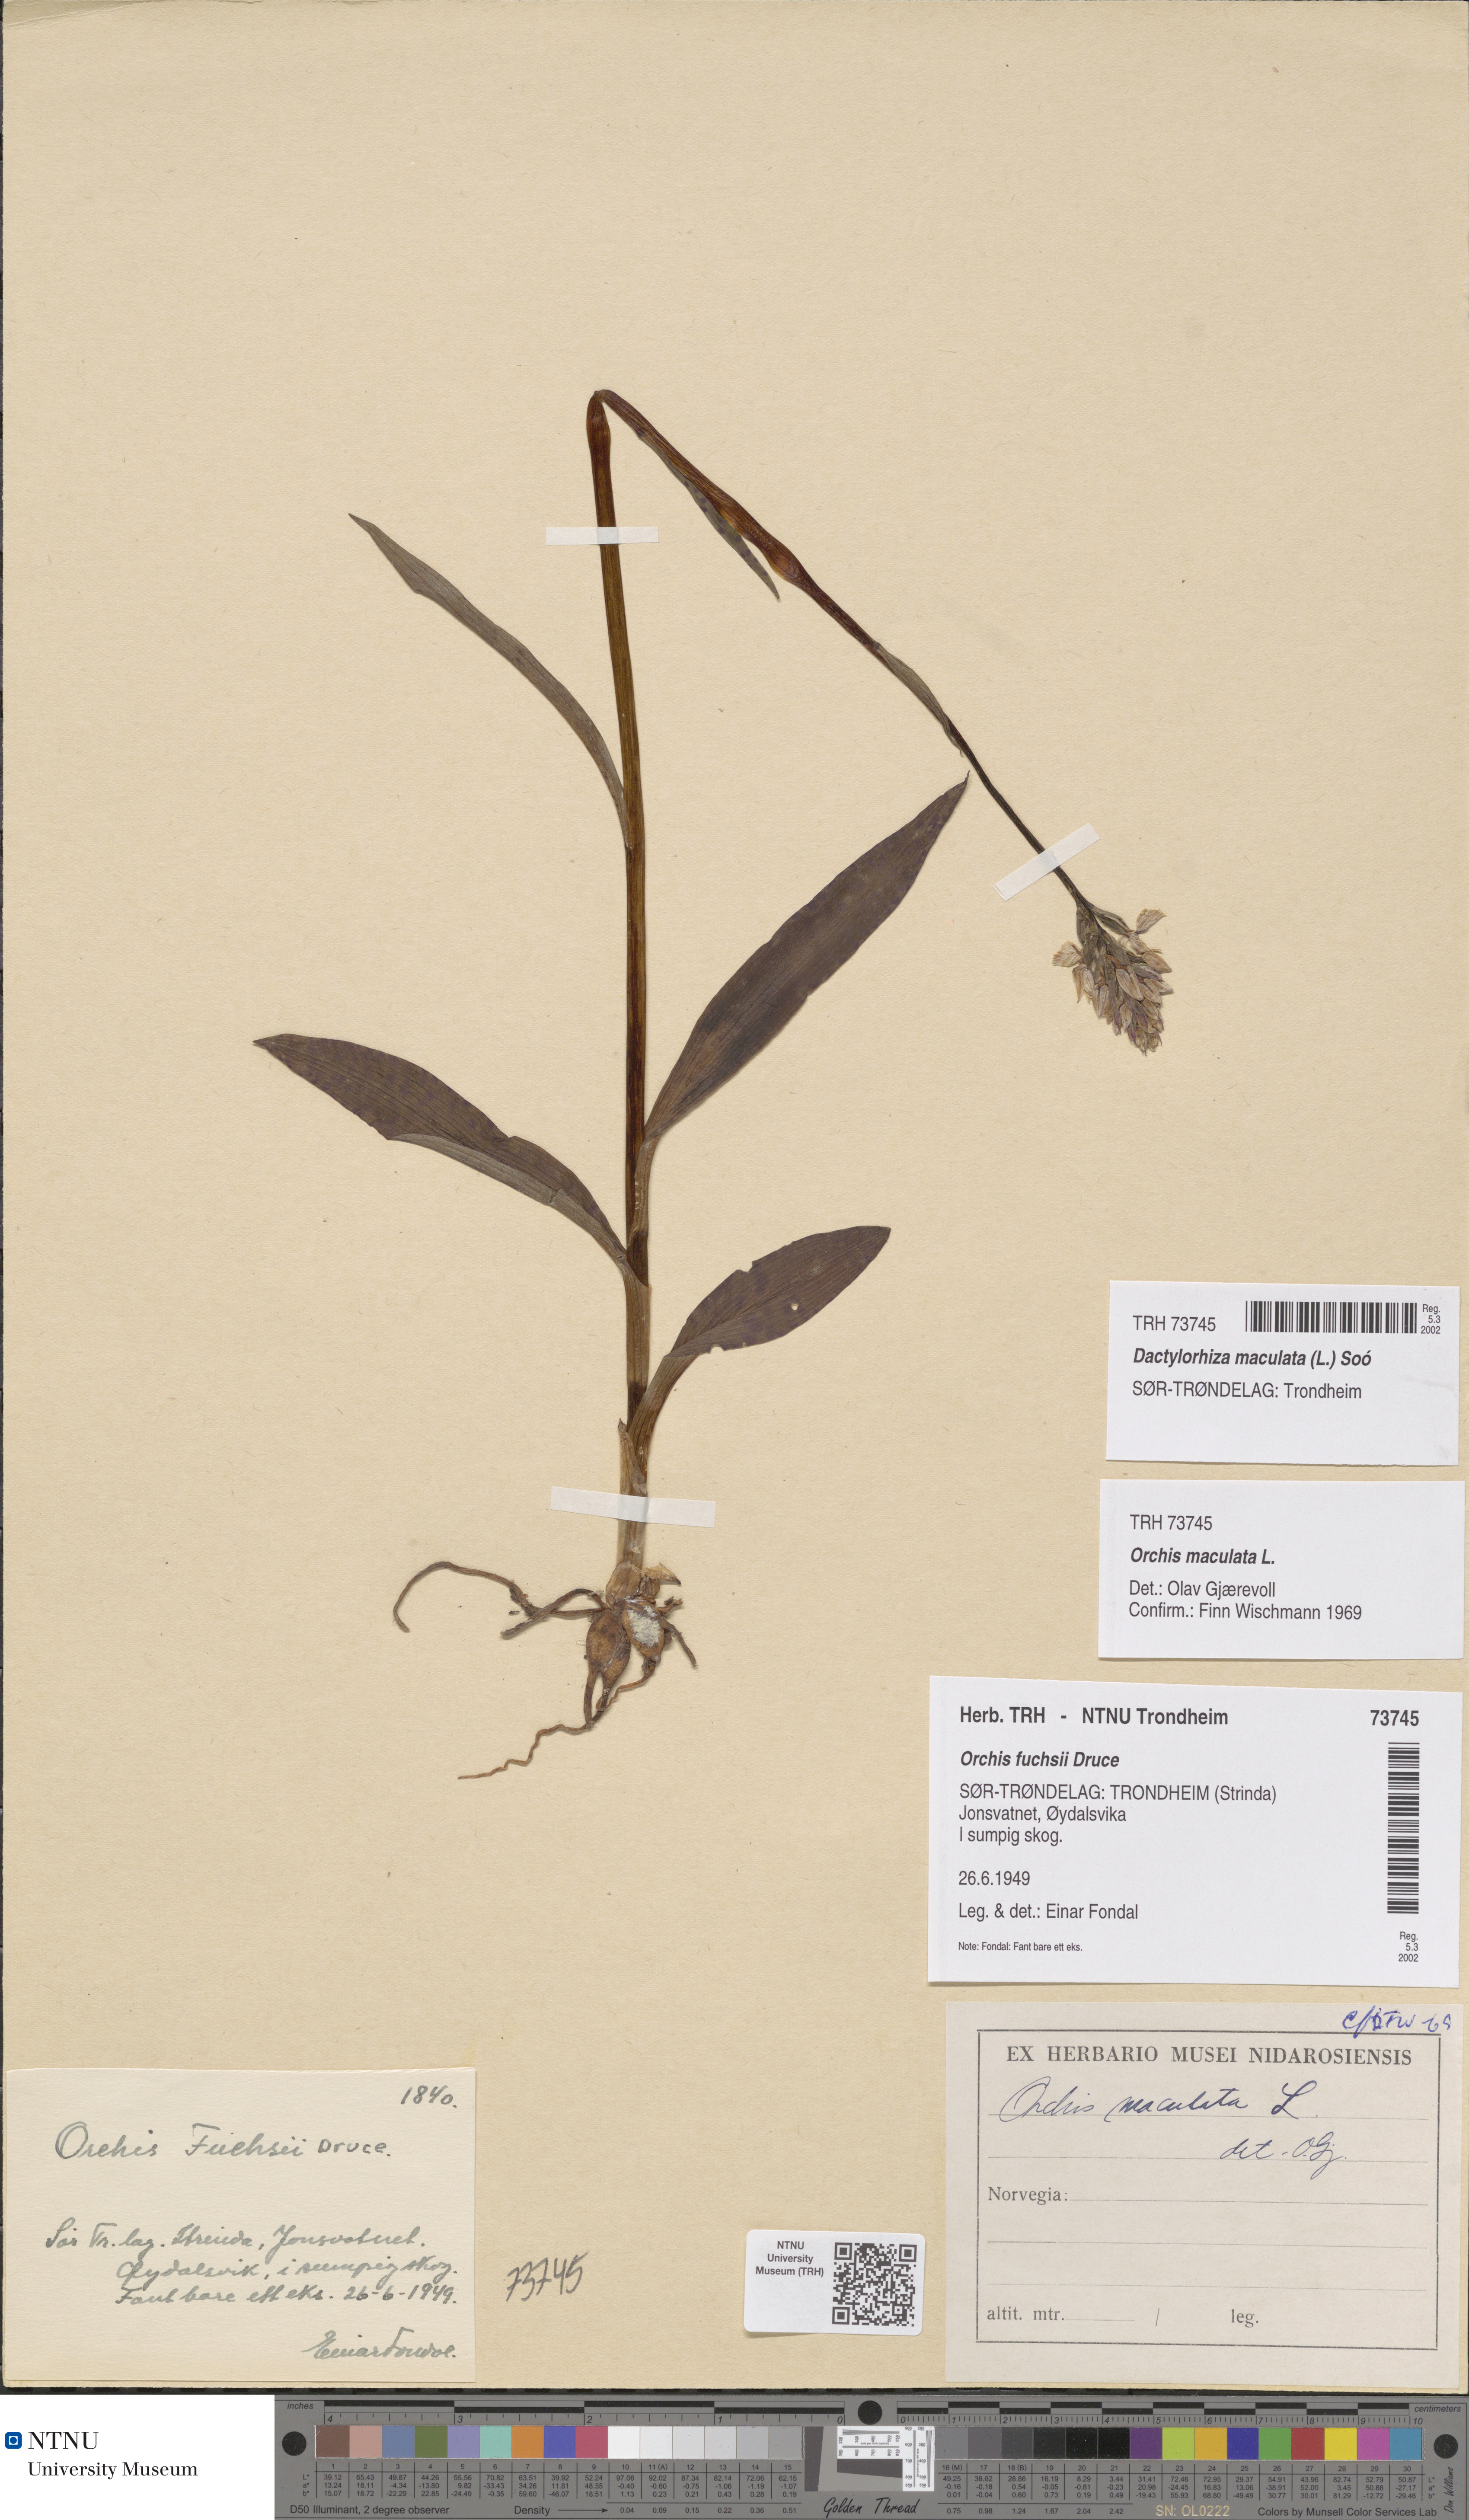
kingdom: Plantae
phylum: Tracheophyta
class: Liliopsida
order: Asparagales
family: Orchidaceae
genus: Dactylorhiza
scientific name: Dactylorhiza maculata
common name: Heath spotted-orchid
